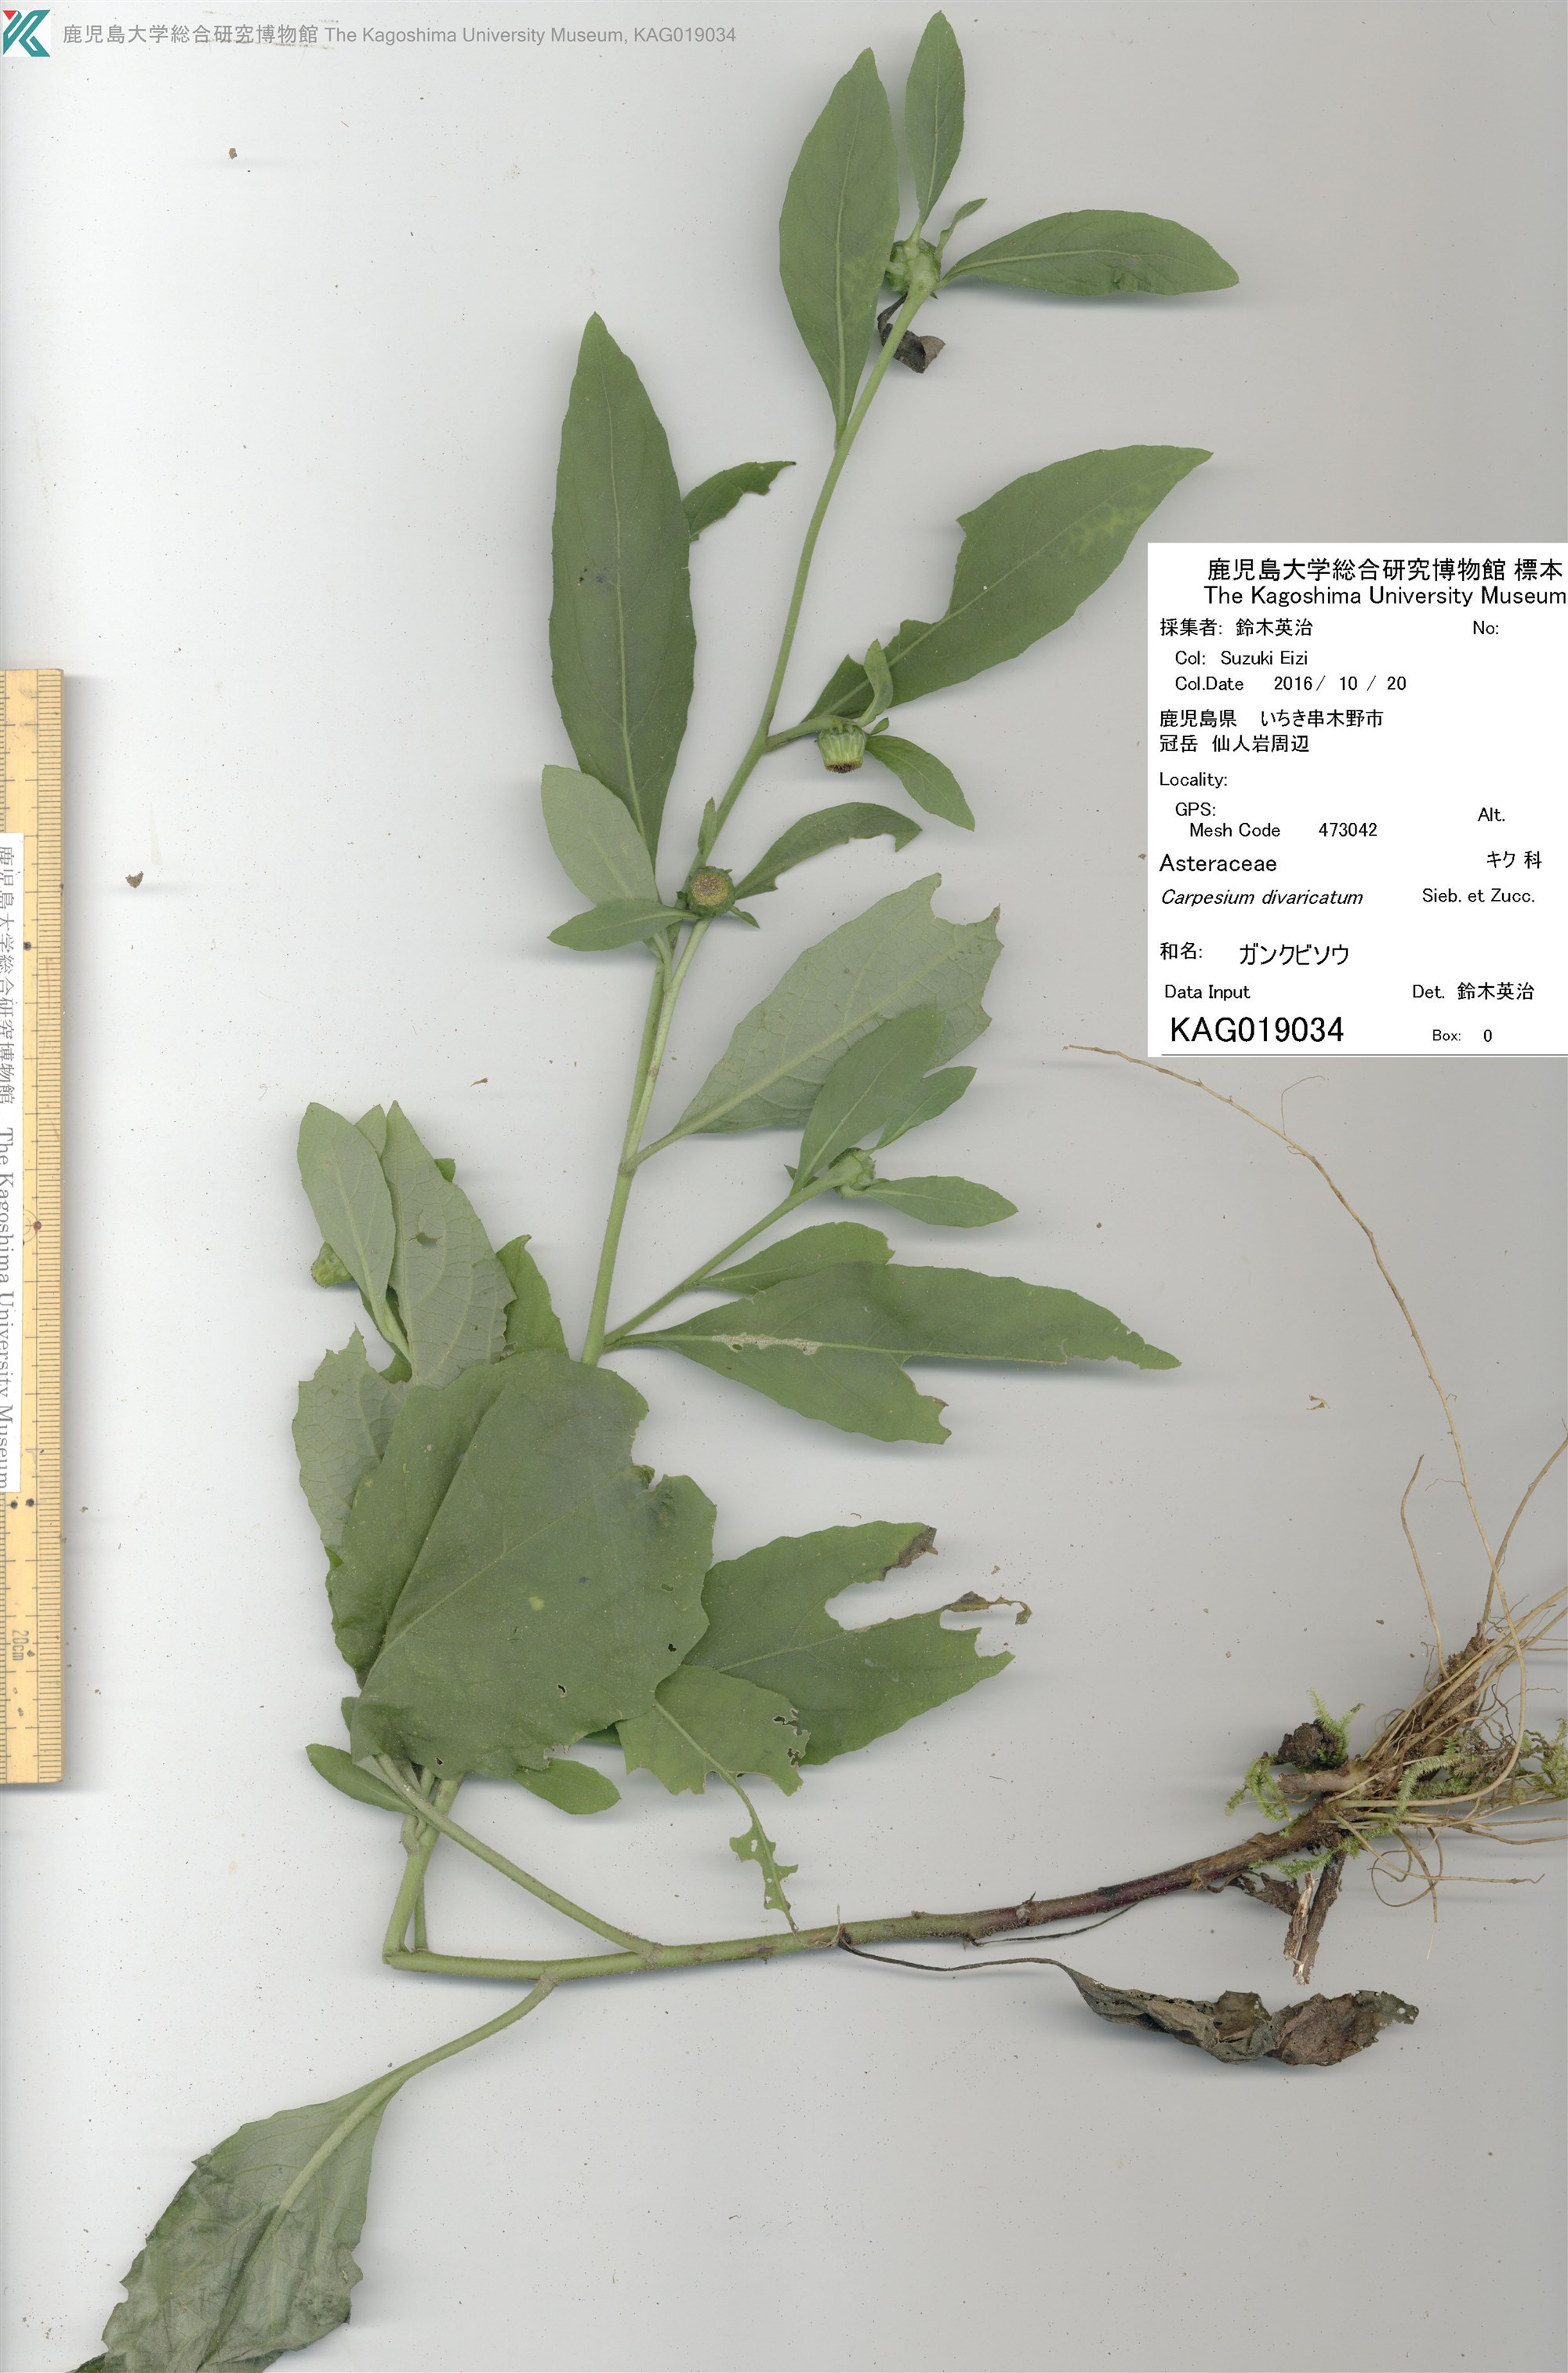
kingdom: Plantae
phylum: Tracheophyta
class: Magnoliopsida
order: Asterales
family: Asteraceae
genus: Carpesium
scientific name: Carpesium divaricatum
